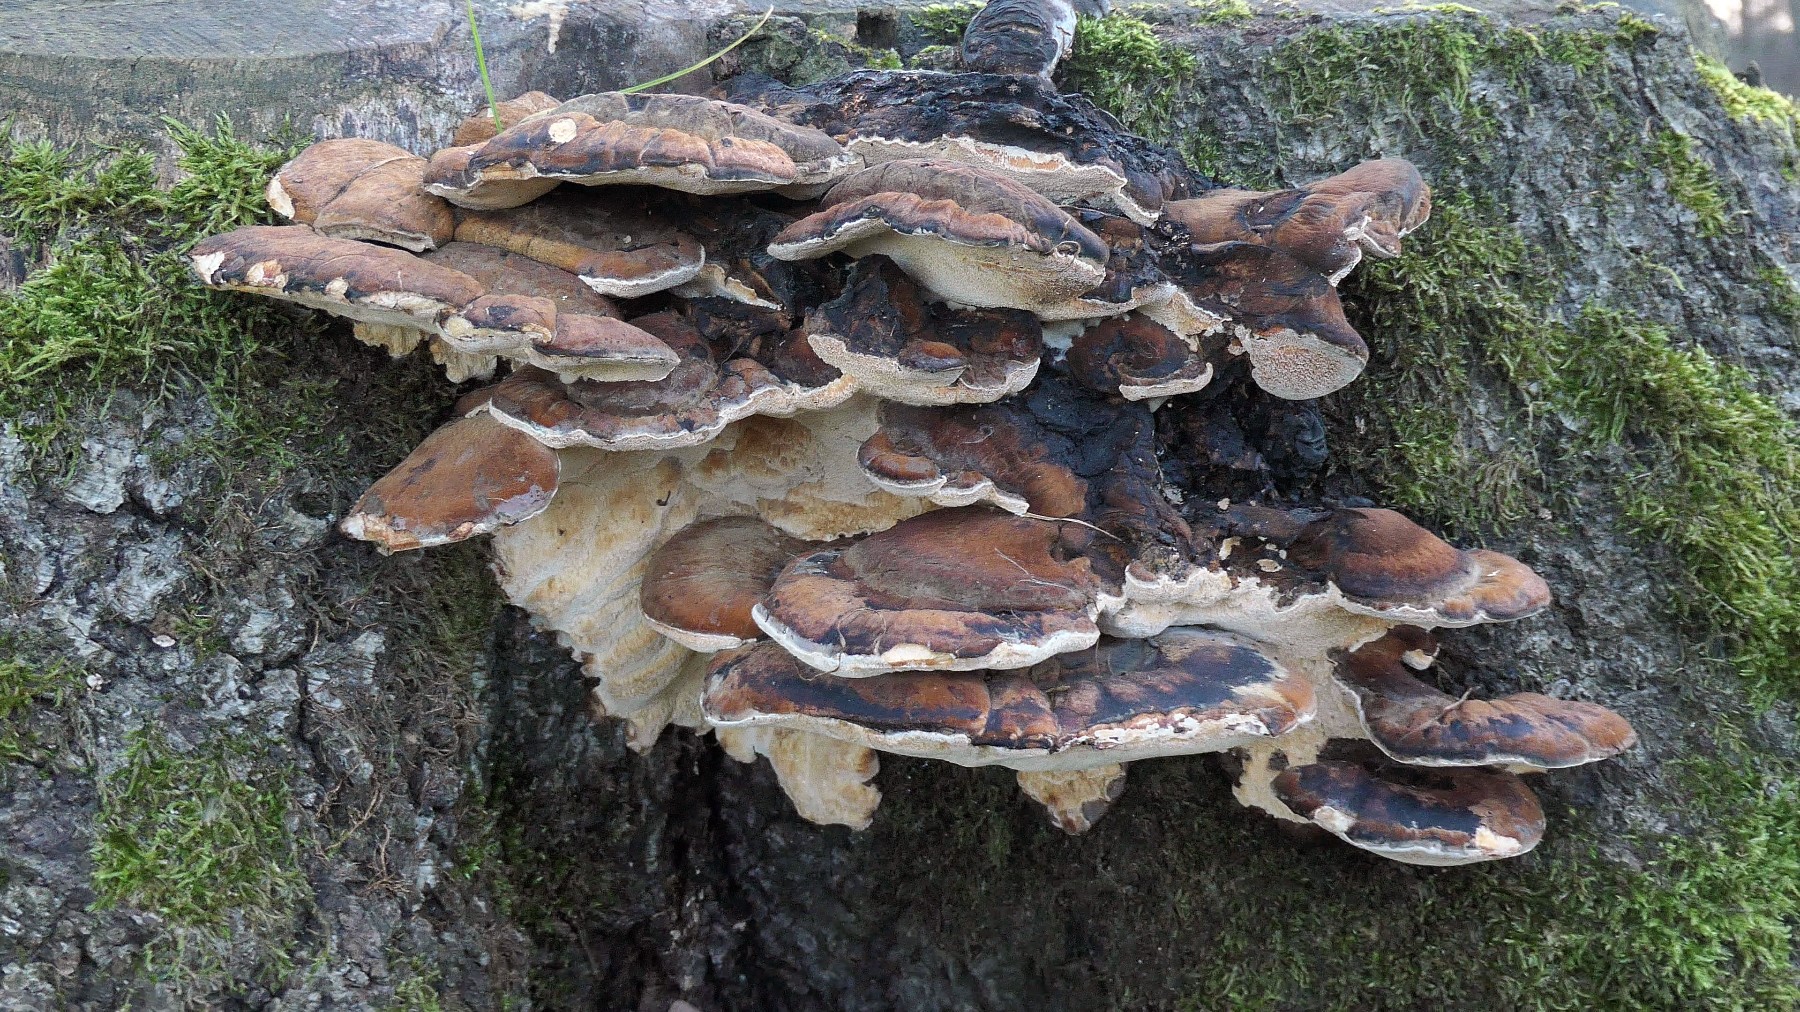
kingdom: Fungi
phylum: Basidiomycota
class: Agaricomycetes
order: Polyporales
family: Ischnodermataceae
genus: Ischnoderma
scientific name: Ischnoderma resinosum
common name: løv-tjæreporesvamp
